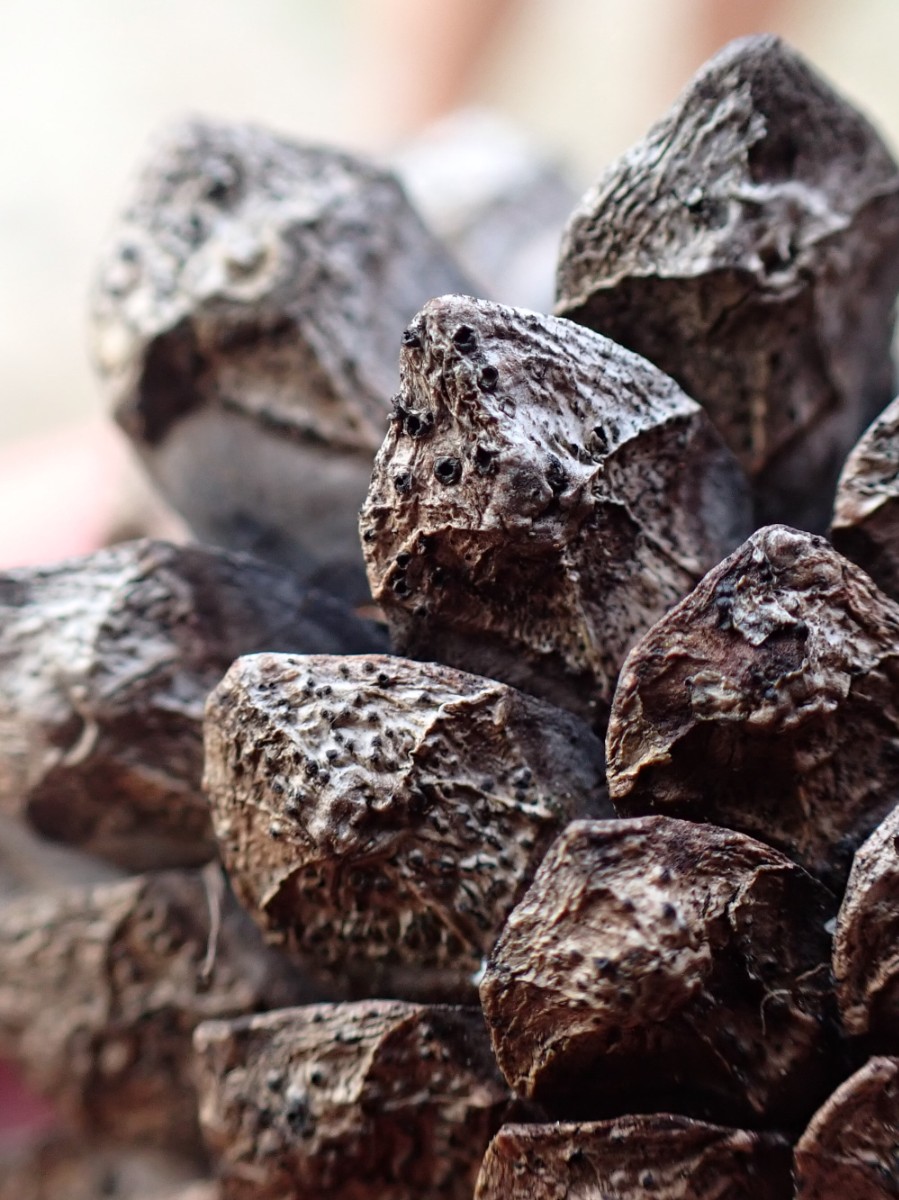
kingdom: Fungi
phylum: Ascomycota
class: Dothideomycetes
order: Botryosphaeriales
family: Botryosphaeriaceae
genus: Sphaeropsis
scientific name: Sphaeropsis sapinea
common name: Sphaeropsis blight
